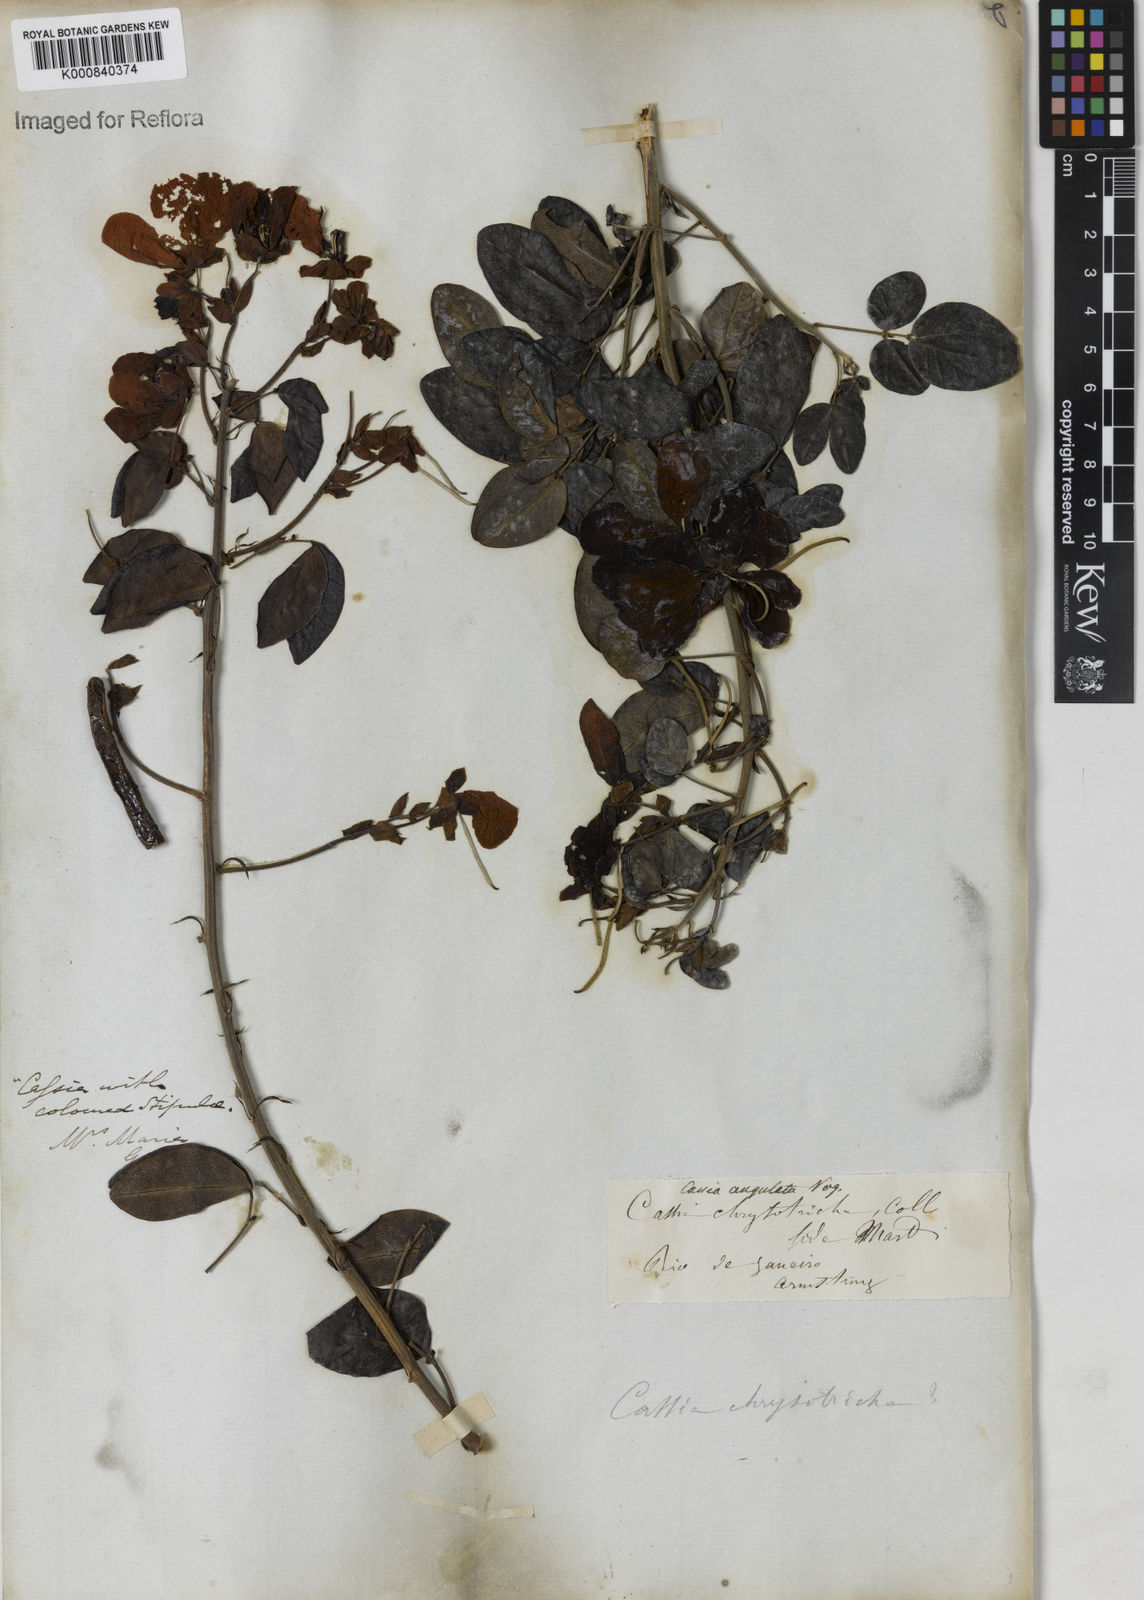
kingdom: Plantae
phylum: Tracheophyta
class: Magnoliopsida
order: Fabales
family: Fabaceae
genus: Senna
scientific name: Senna angulata
